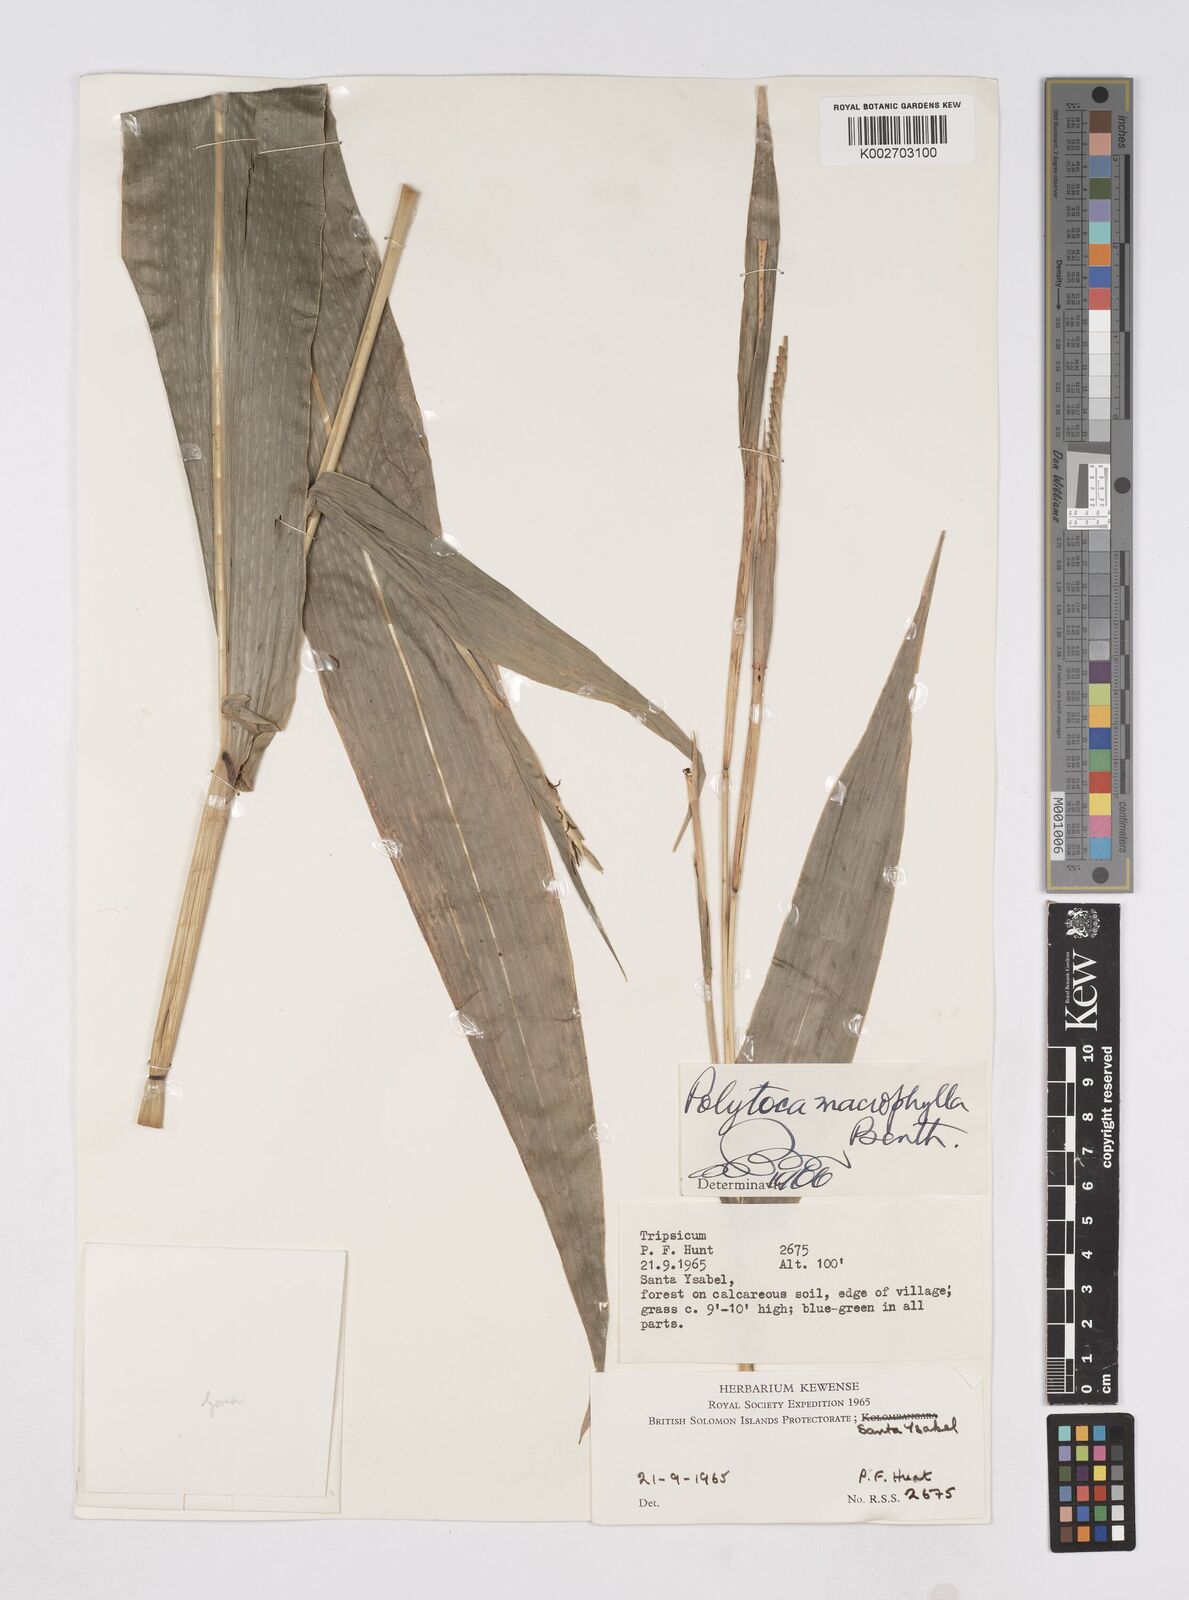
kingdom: Plantae
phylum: Tracheophyta
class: Liliopsida
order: Poales
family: Poaceae
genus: Polytoca
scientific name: Polytoca macrophylla
